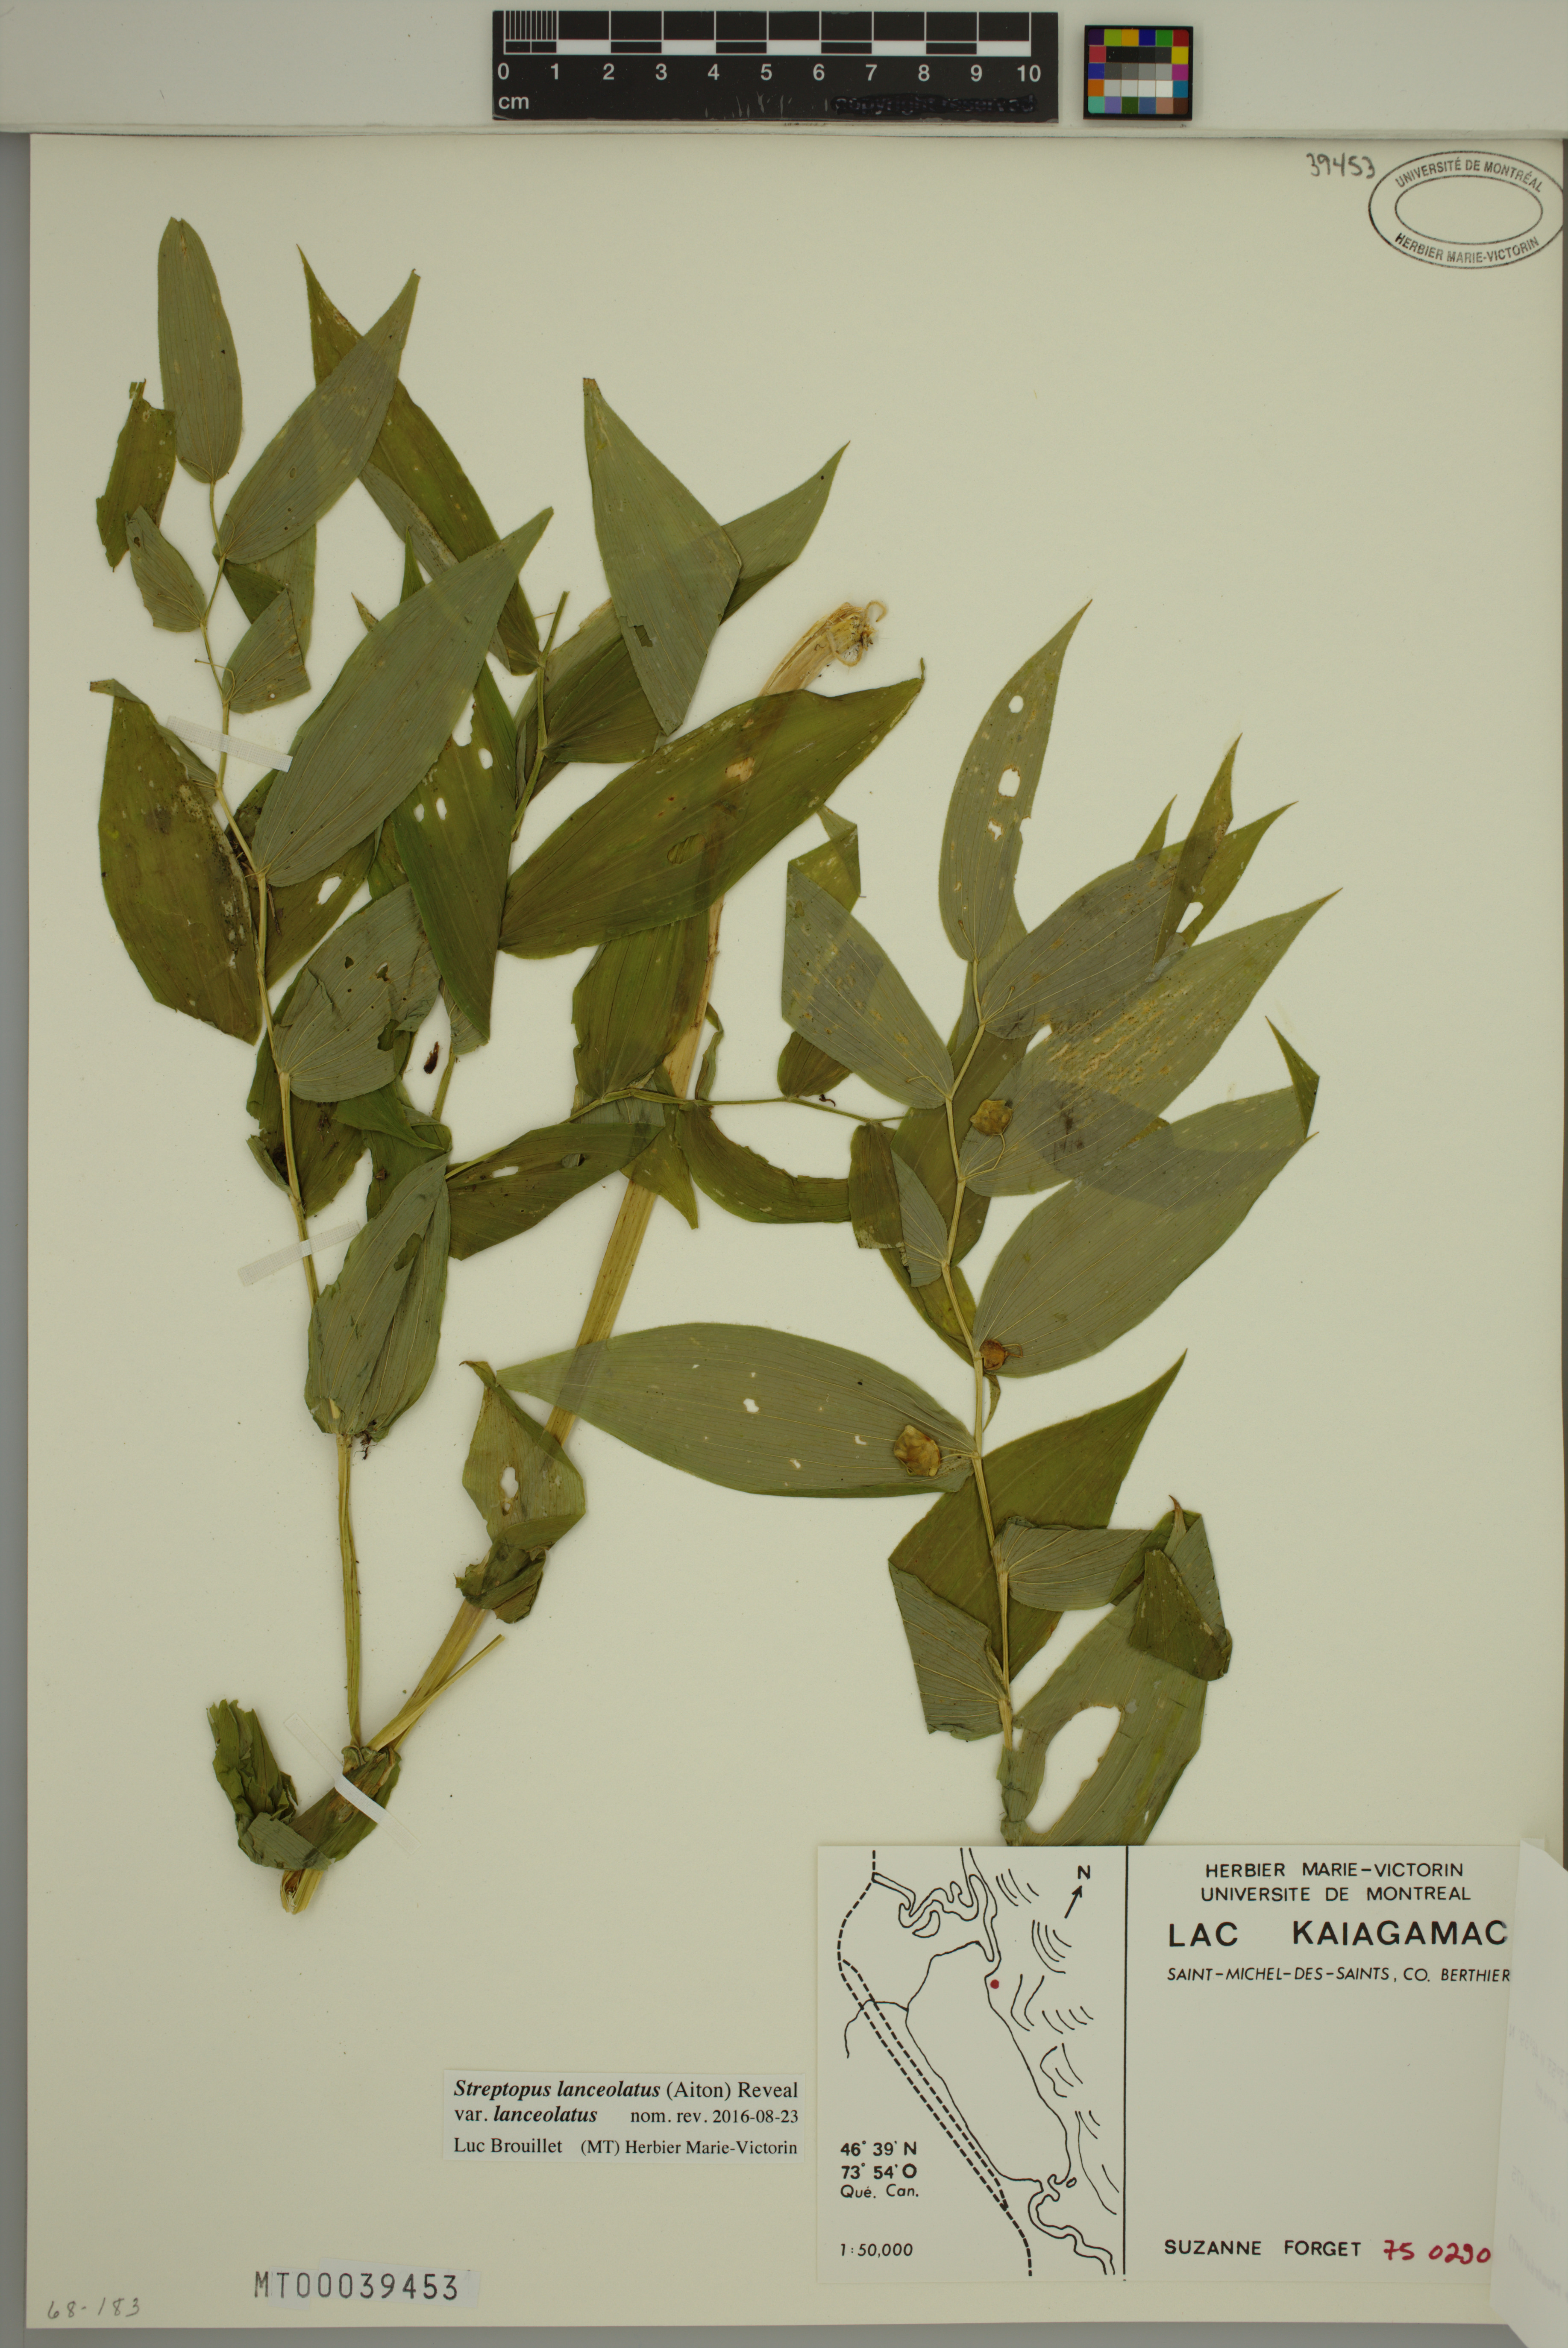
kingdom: Plantae
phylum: Tracheophyta
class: Liliopsida
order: Liliales
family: Liliaceae
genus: Streptopus
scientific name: Streptopus lanceolatus
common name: Rose mandarin
